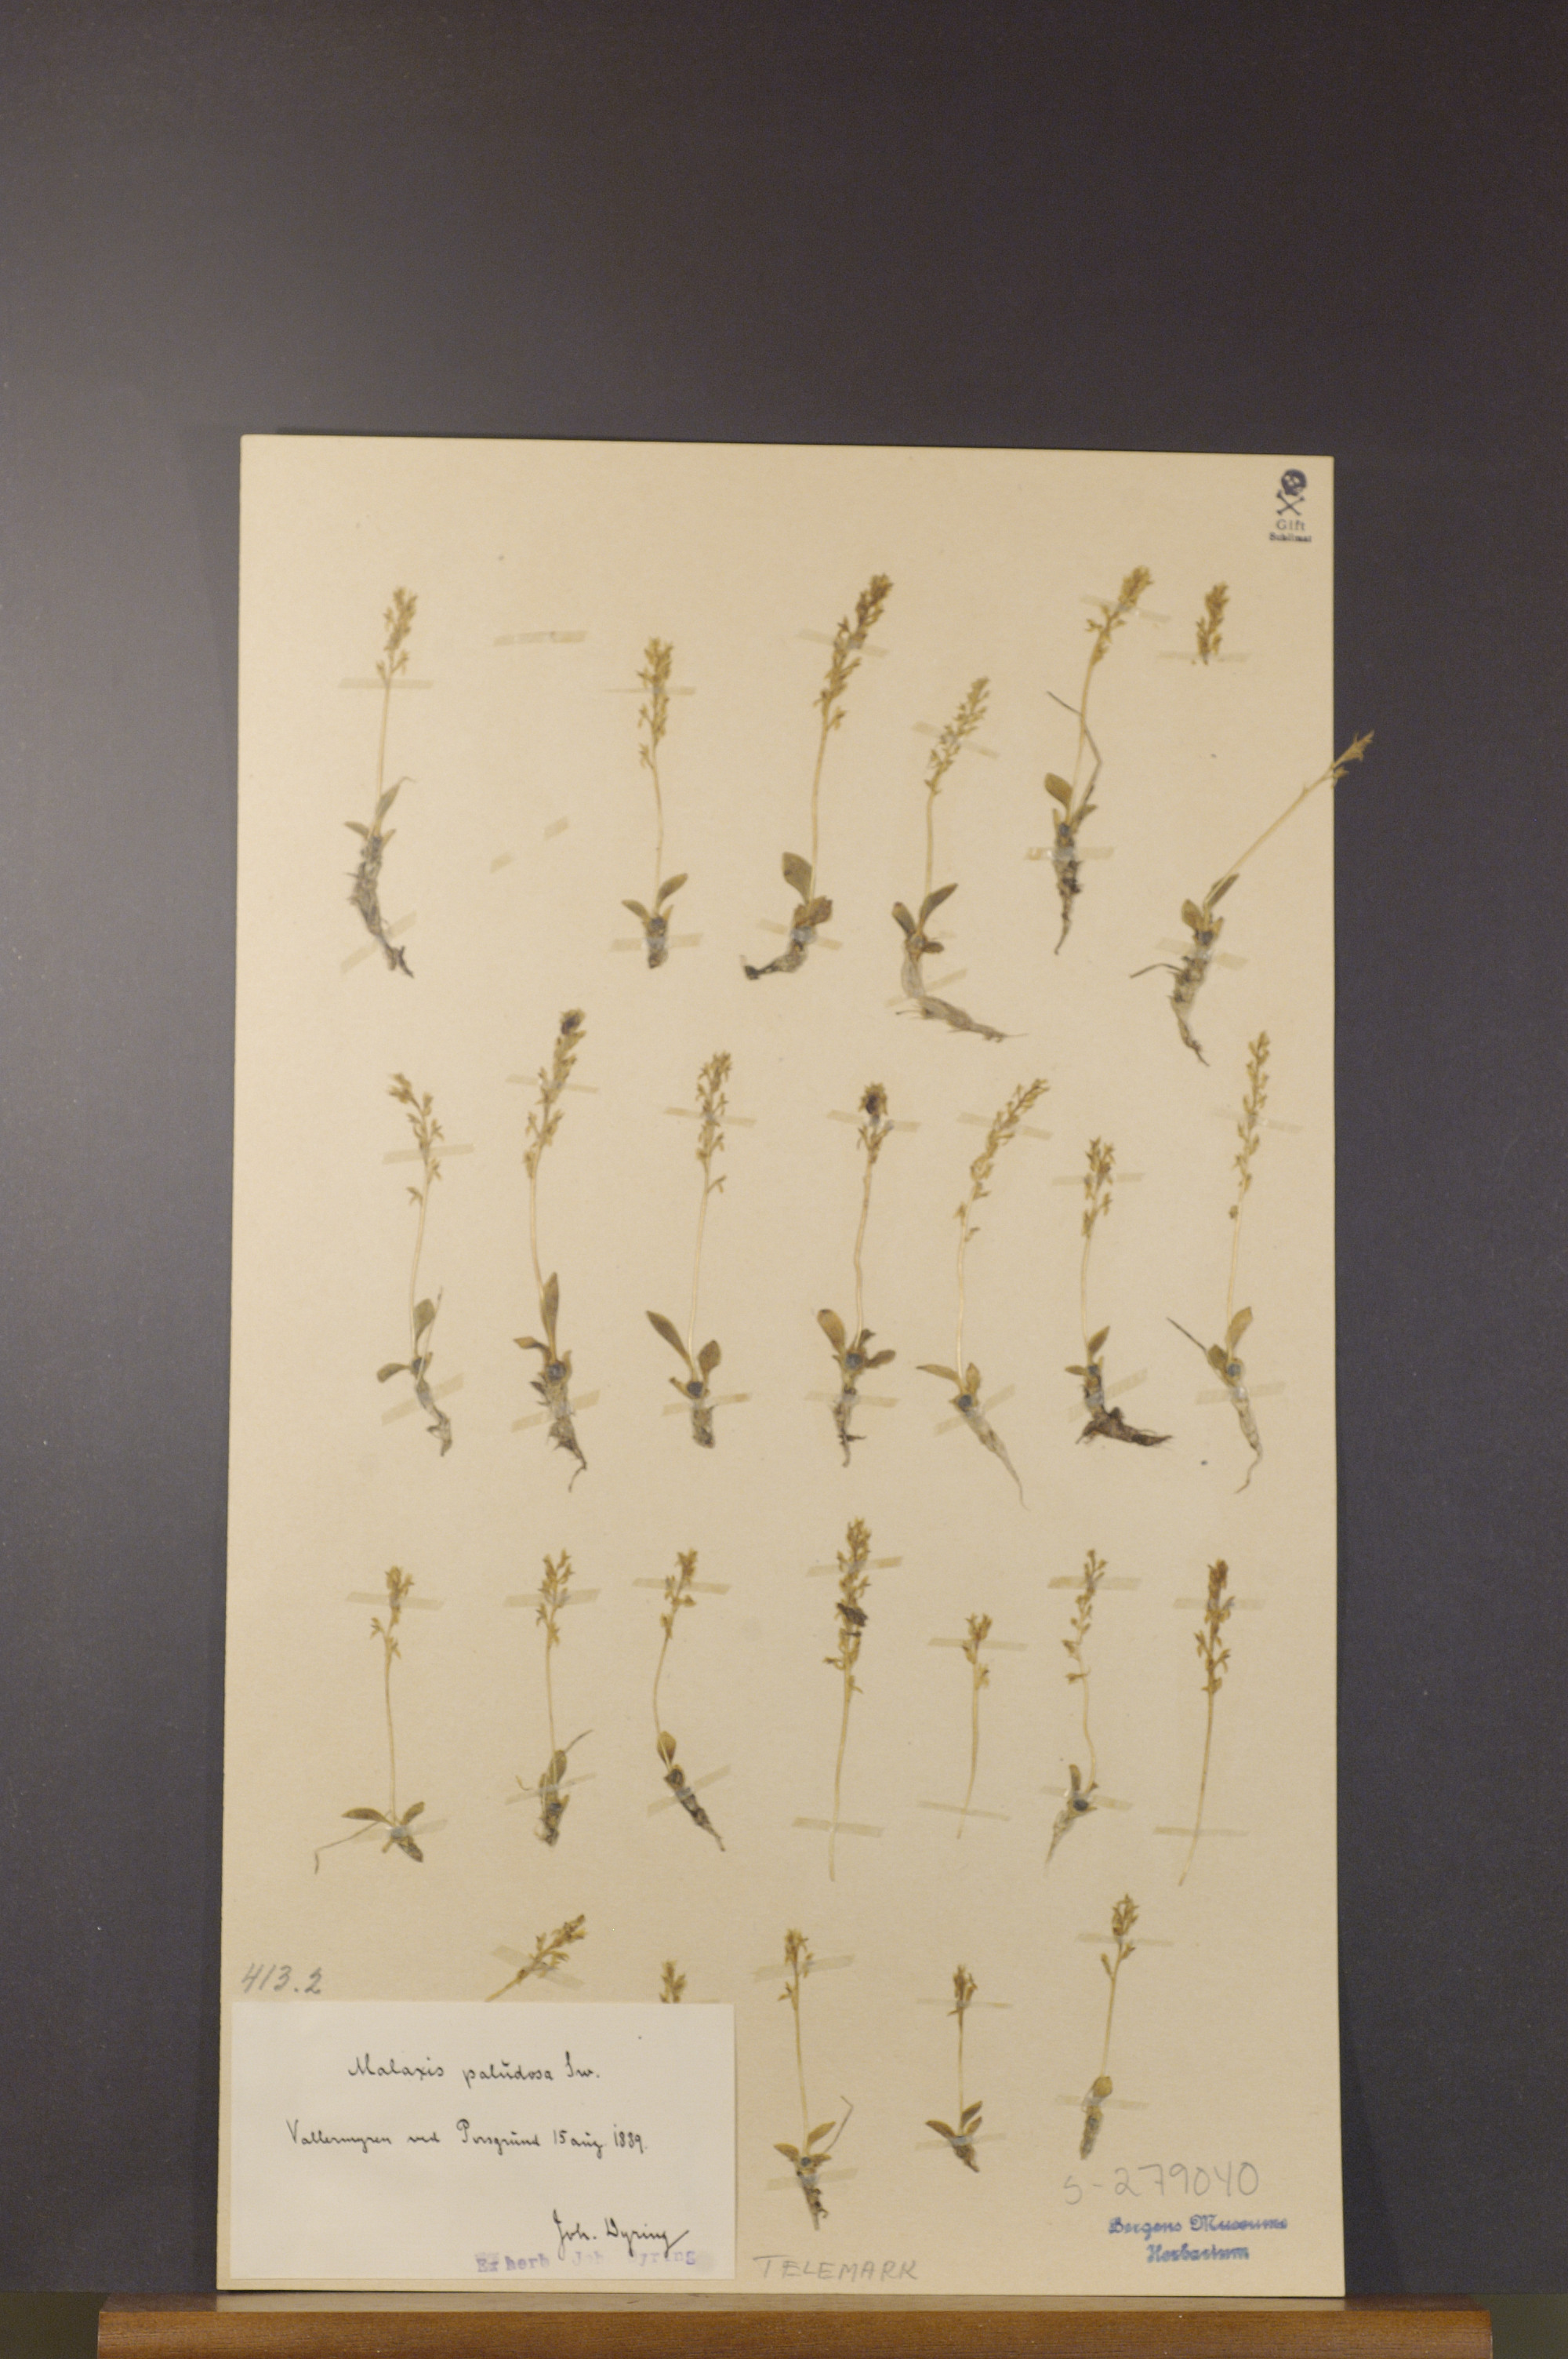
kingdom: Plantae
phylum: Tracheophyta
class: Liliopsida
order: Asparagales
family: Orchidaceae
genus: Hammarbya
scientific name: Hammarbya paludosa
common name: Bog orchid
